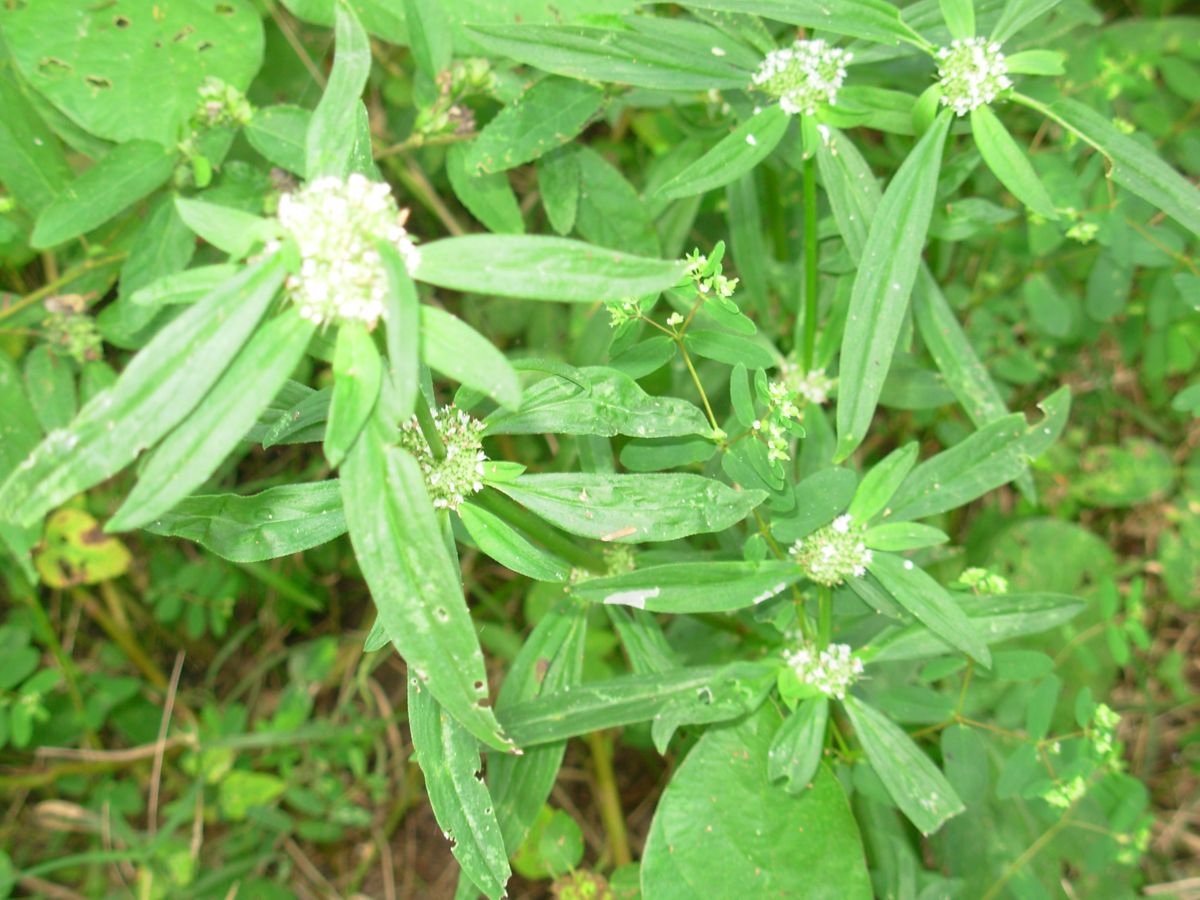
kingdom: Plantae
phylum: Tracheophyta
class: Magnoliopsida
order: Gentianales
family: Rubiaceae
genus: Hexasepalum
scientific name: Hexasepalum sarmentosum
